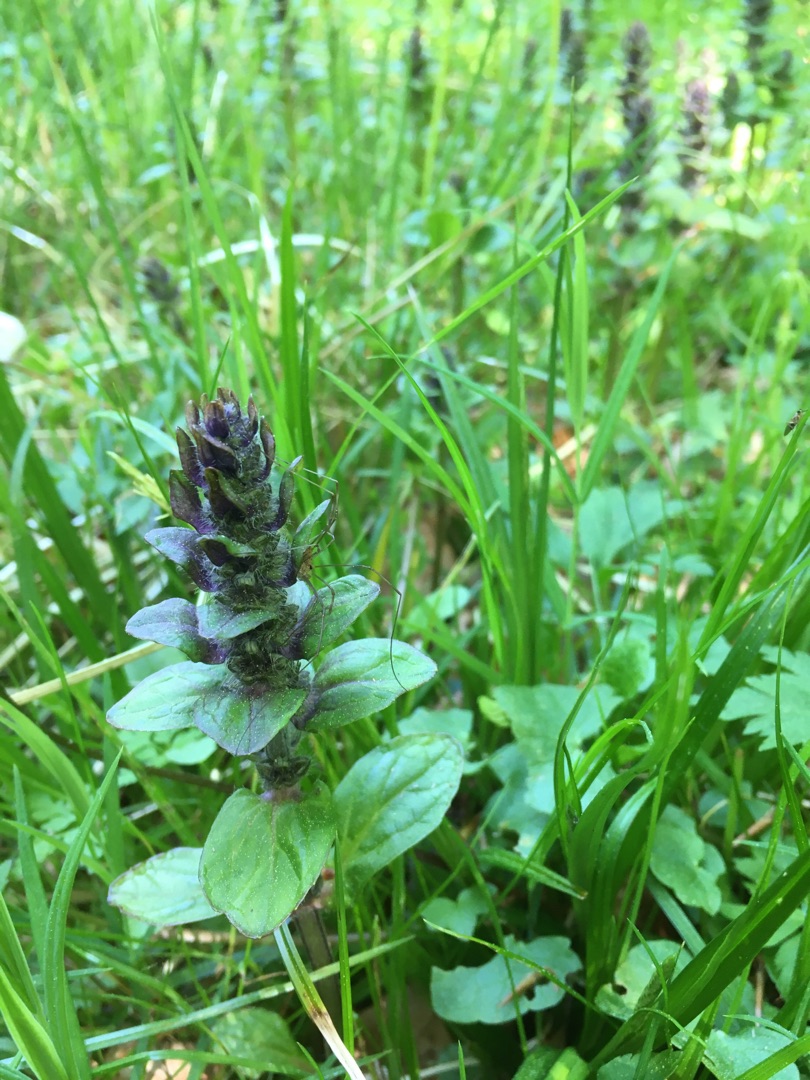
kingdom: Plantae
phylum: Tracheophyta
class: Magnoliopsida
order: Lamiales
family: Lamiaceae
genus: Ajuga
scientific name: Ajuga reptans
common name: Krybende læbeløs
